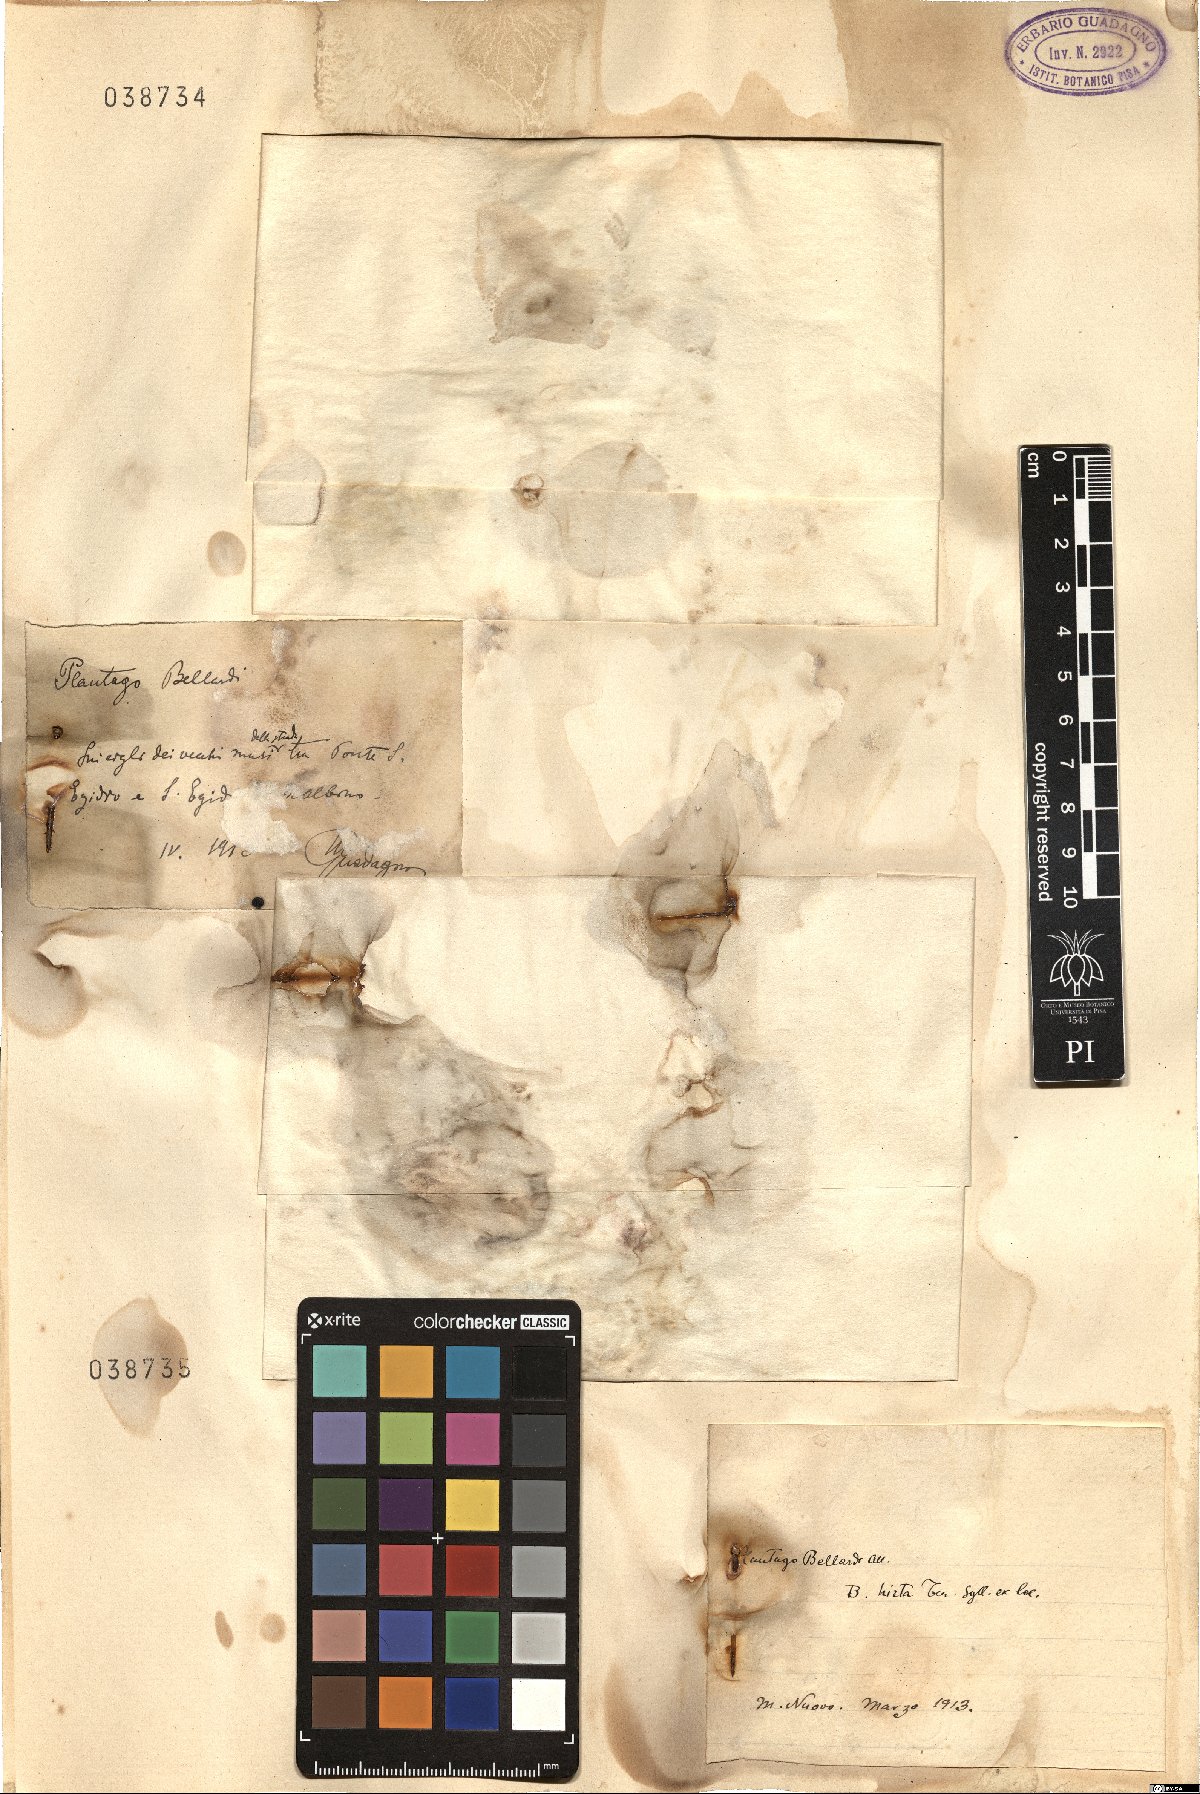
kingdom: Plantae
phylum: Tracheophyta
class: Magnoliopsida
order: Lamiales
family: Plantaginaceae
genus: Plantago
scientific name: Plantago bellardii
